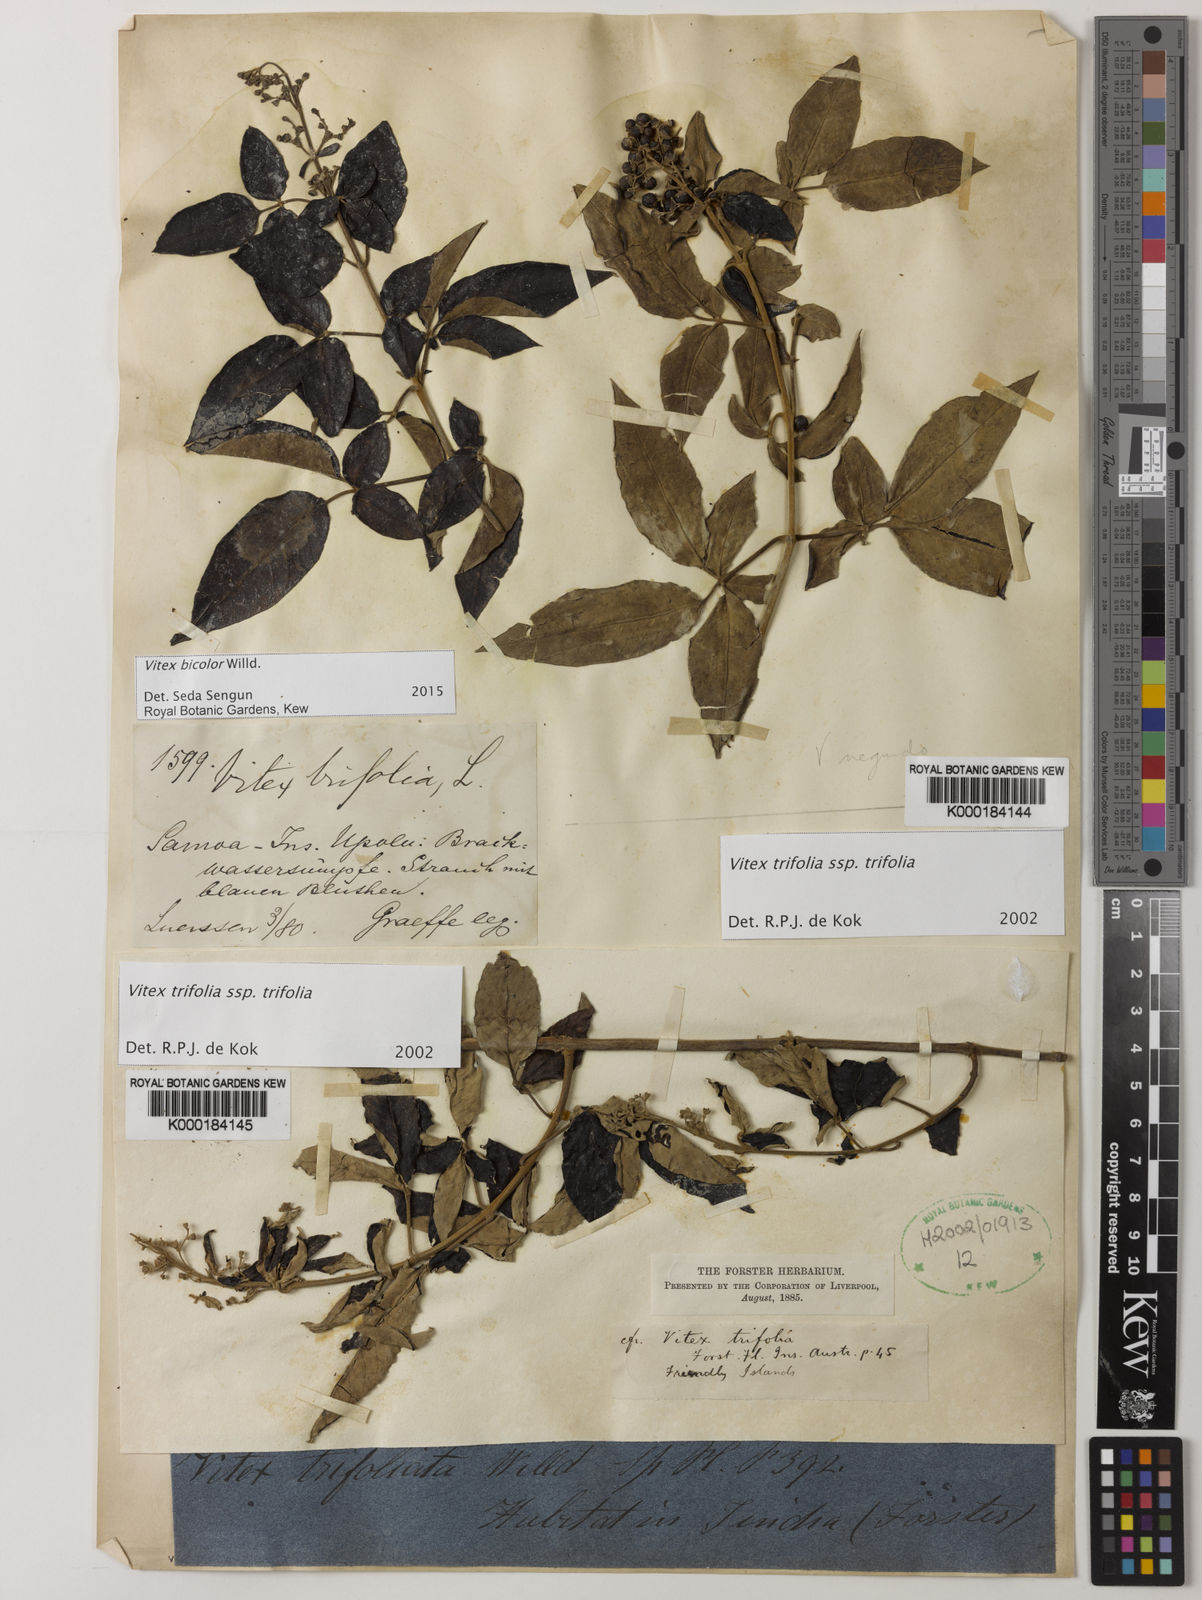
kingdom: Plantae
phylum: Tracheophyta
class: Magnoliopsida
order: Lamiales
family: Lamiaceae
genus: Vitex
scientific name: Vitex trifolia
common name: Simpleleaf chastetree
